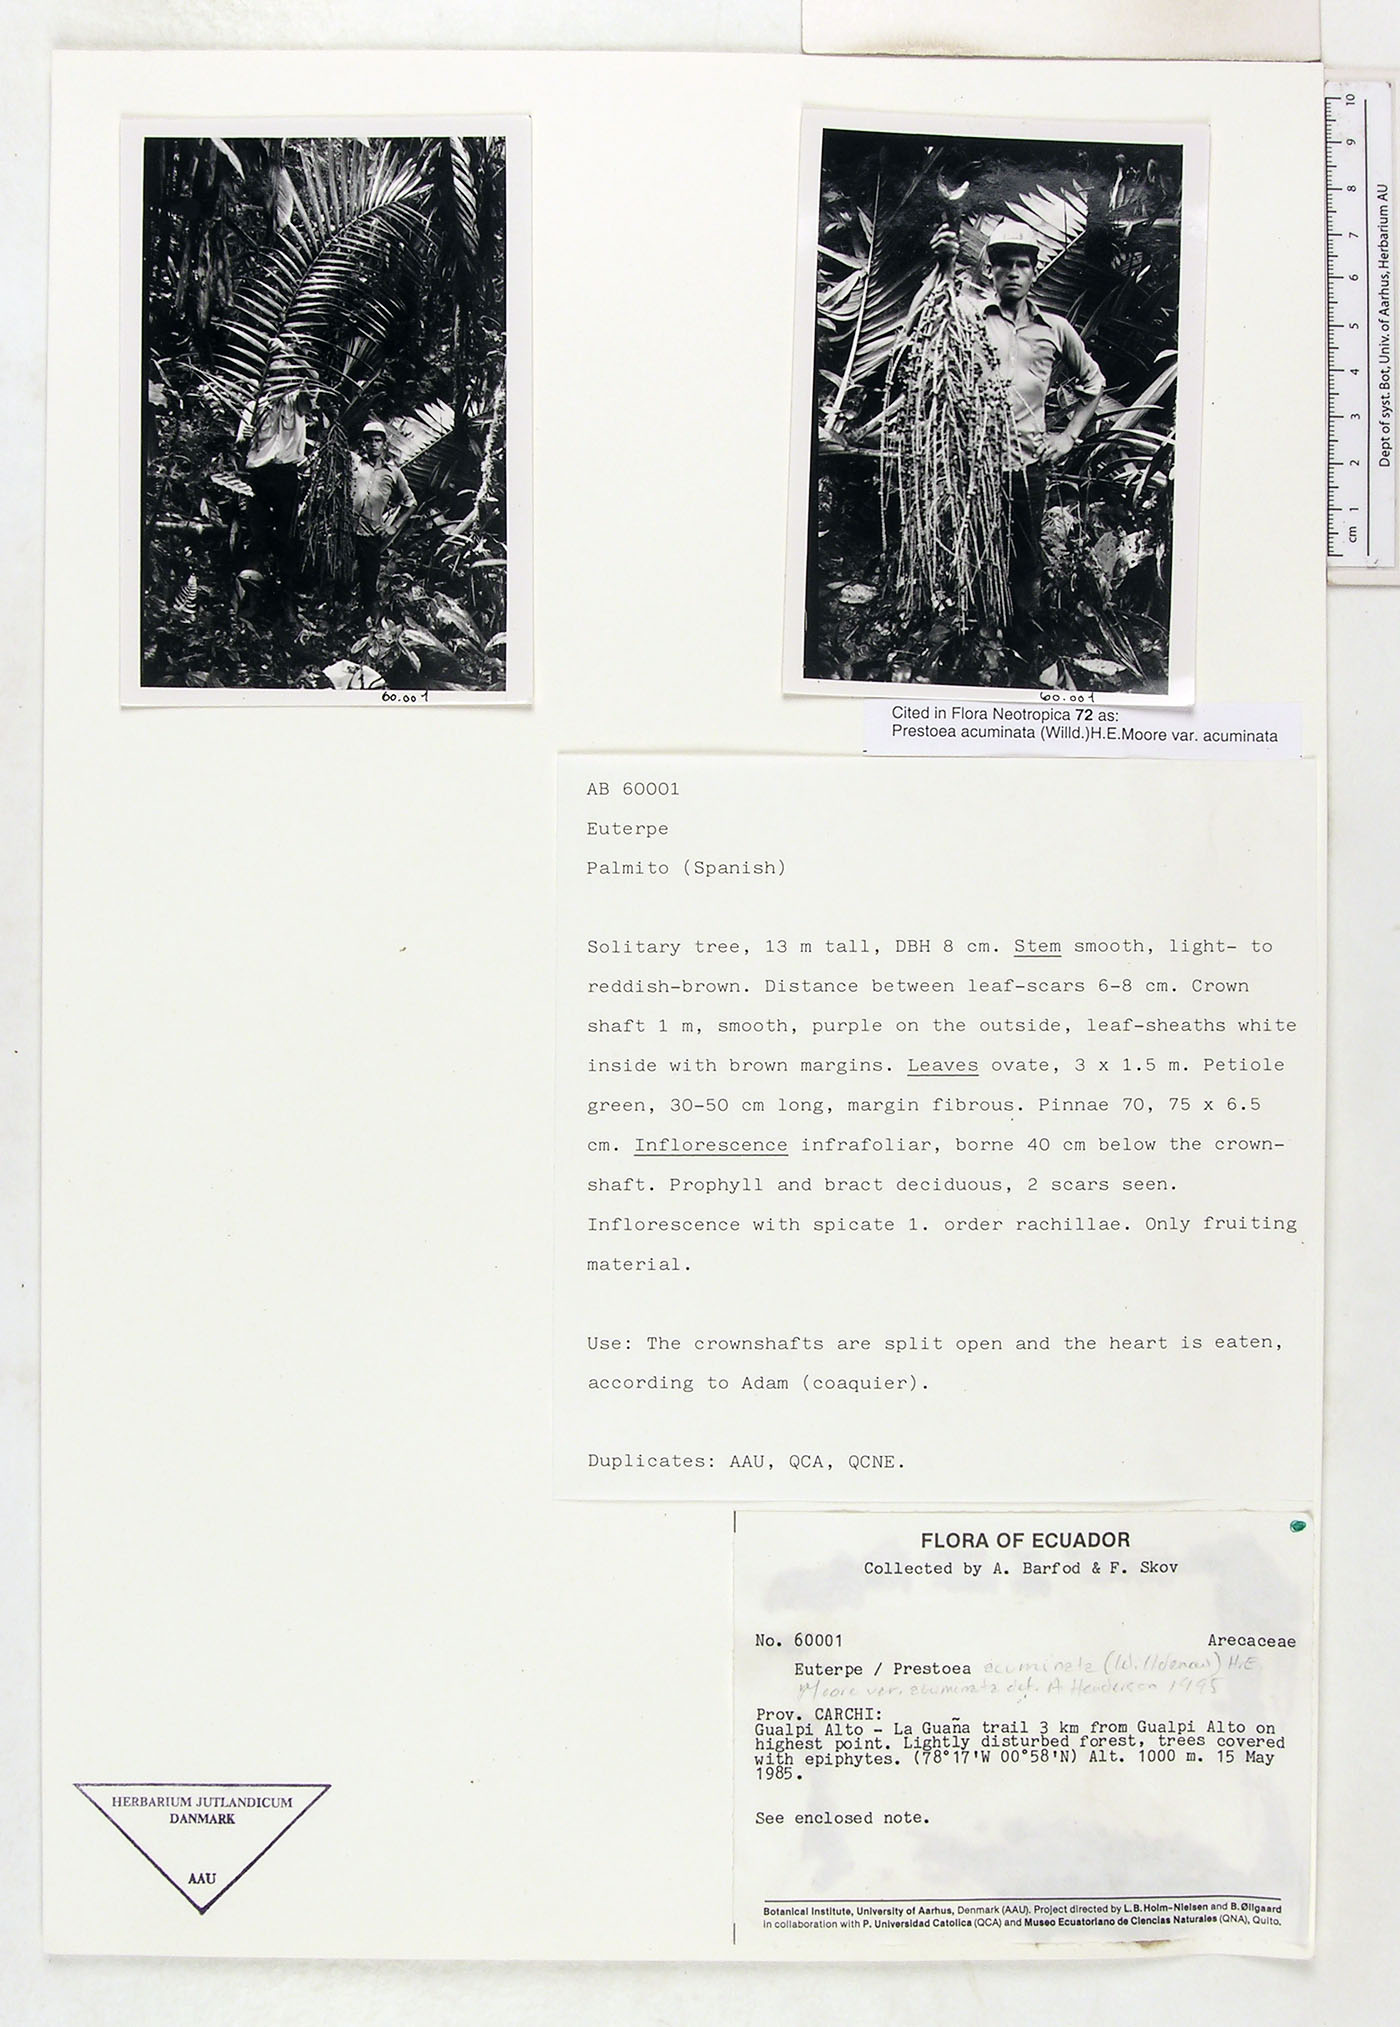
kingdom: Plantae
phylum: Tracheophyta
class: Liliopsida
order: Arecales
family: Arecaceae
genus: Prestoea
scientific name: Prestoea acuminata
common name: Sierran palm
